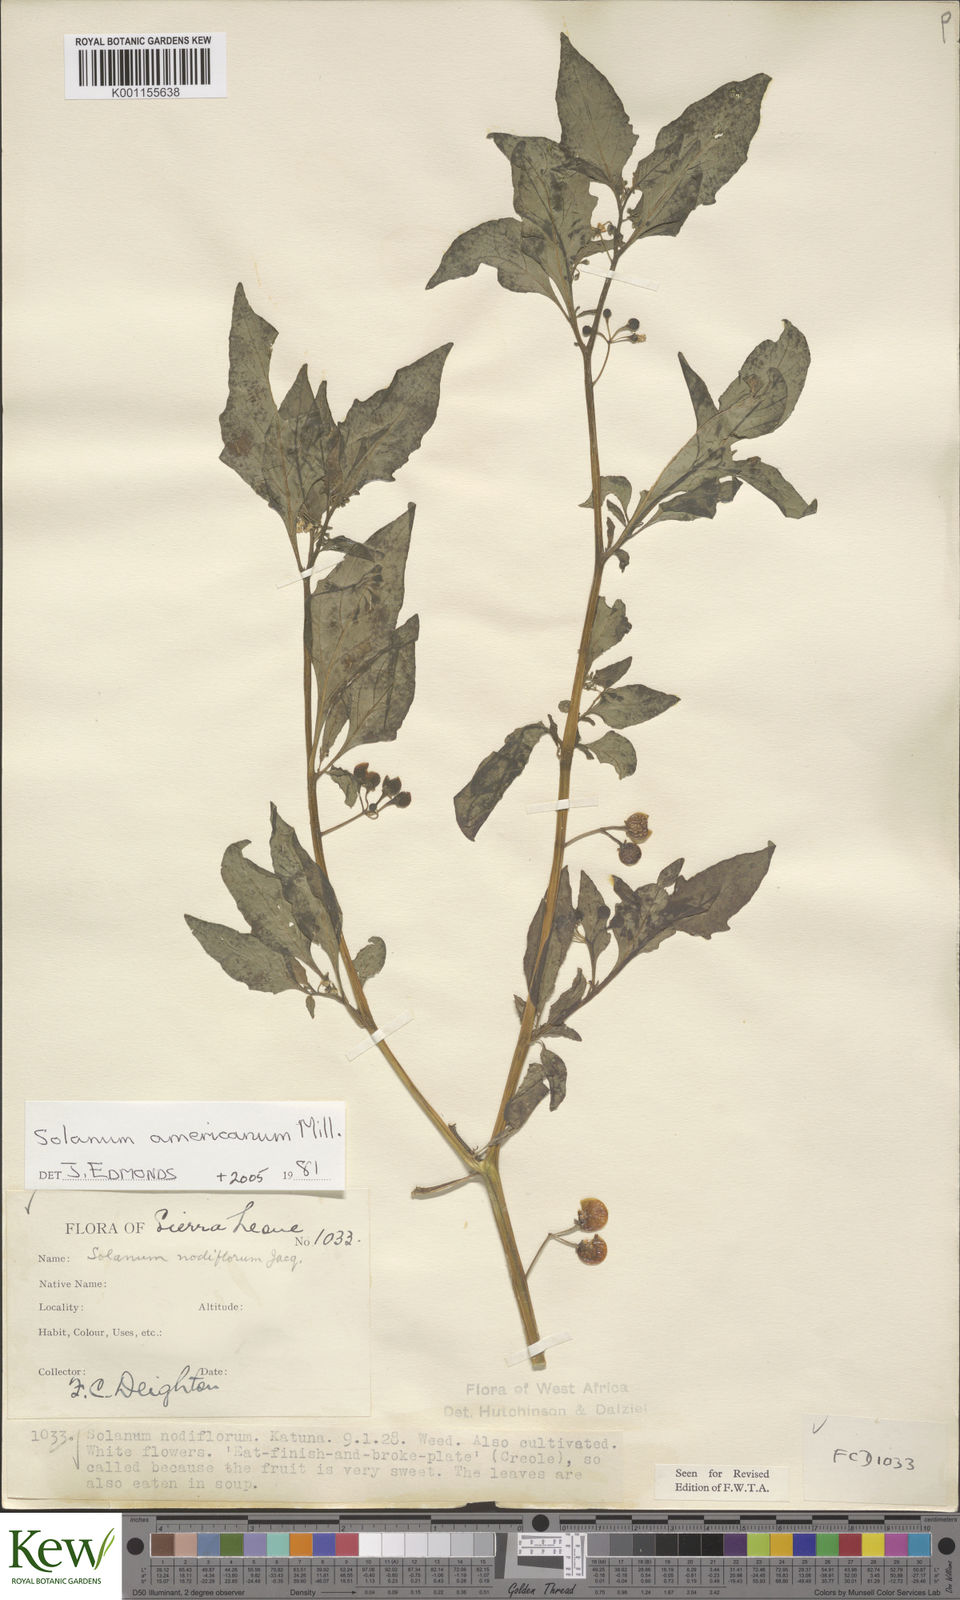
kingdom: Plantae
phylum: Tracheophyta
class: Magnoliopsida
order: Solanales
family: Solanaceae
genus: Solanum
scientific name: Solanum americanum
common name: American black nightshade
